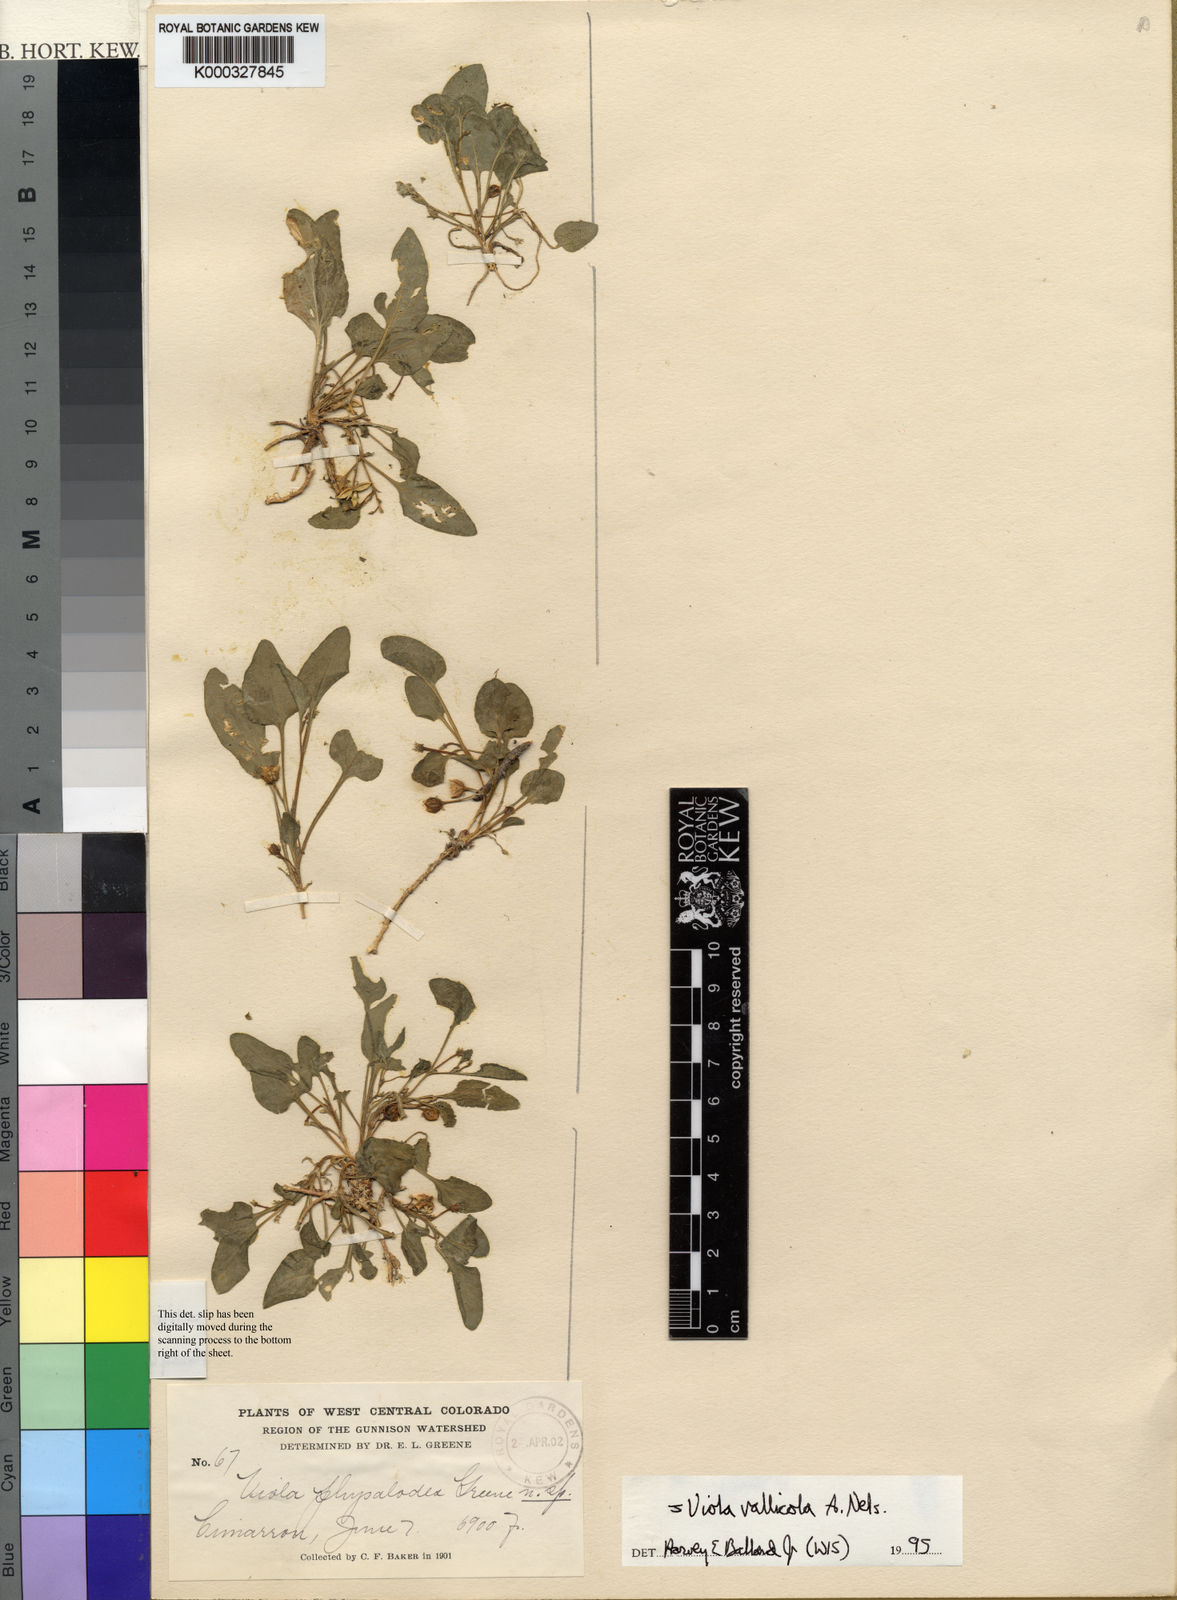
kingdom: Plantae
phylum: Tracheophyta
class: Magnoliopsida
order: Malpighiales
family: Violaceae
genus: Viola
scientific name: Viola vallicola
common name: Valley violet
